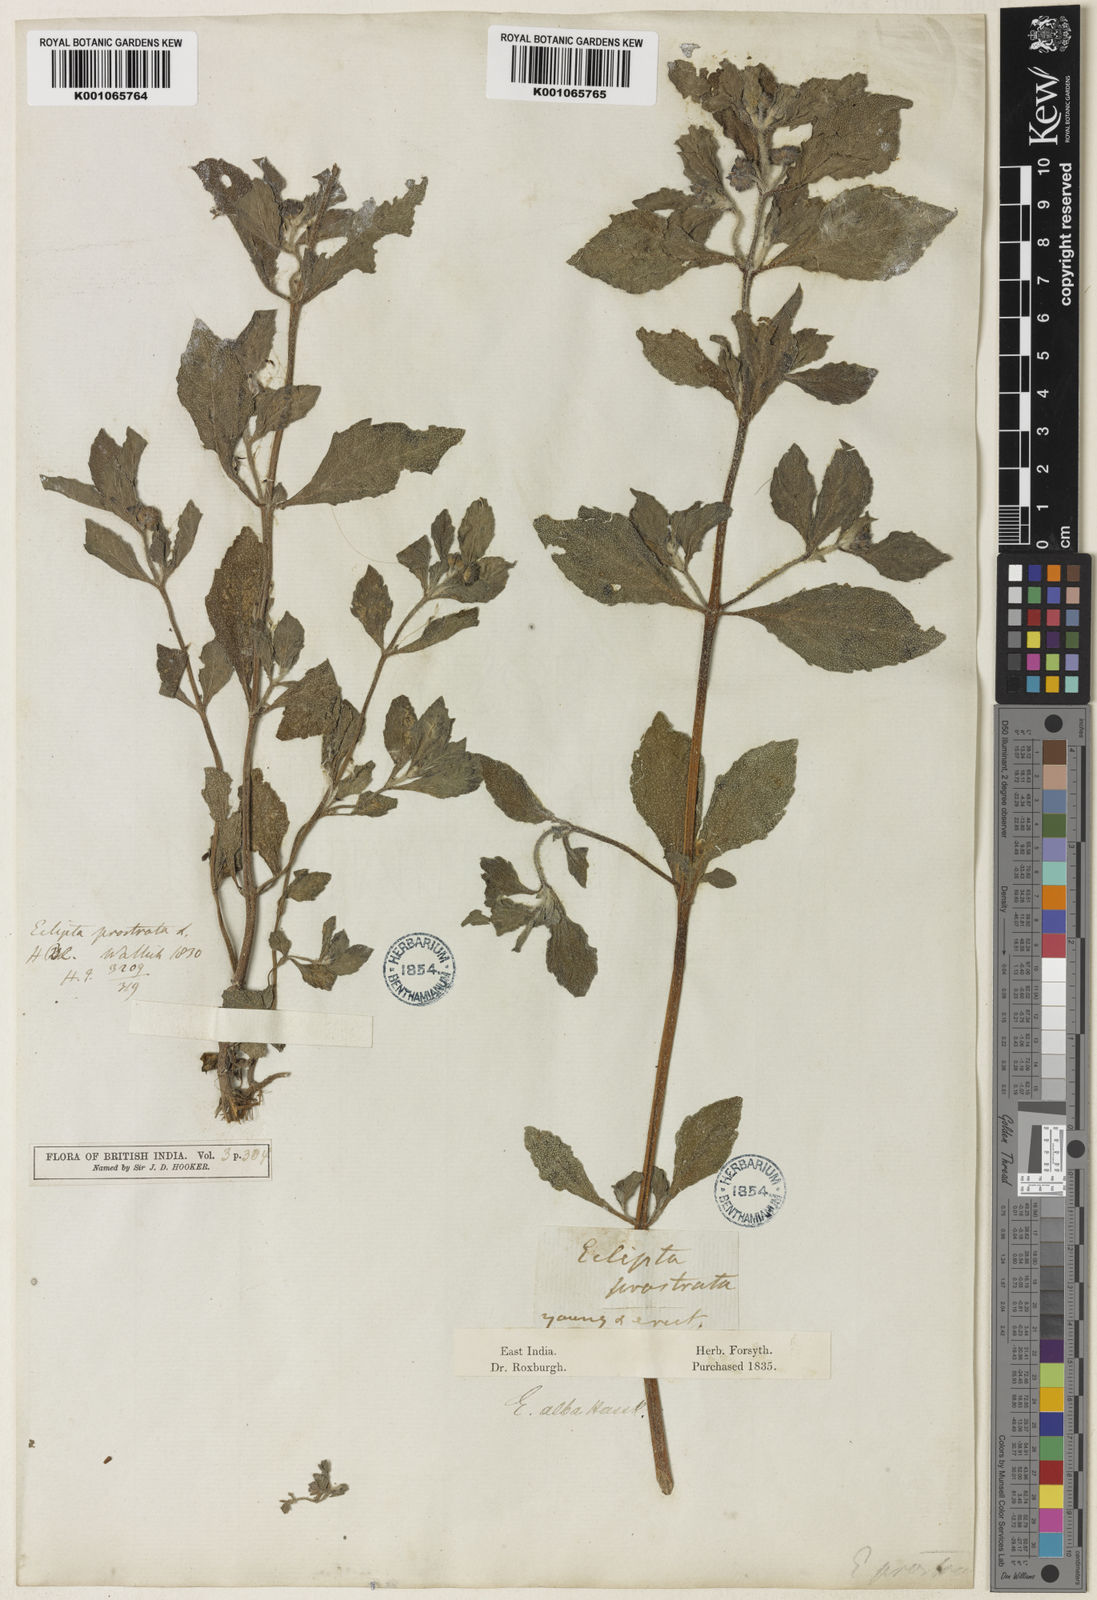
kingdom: Plantae
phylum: Tracheophyta
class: Magnoliopsida
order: Asterales
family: Asteraceae
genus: Eclipta
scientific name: Eclipta alba
